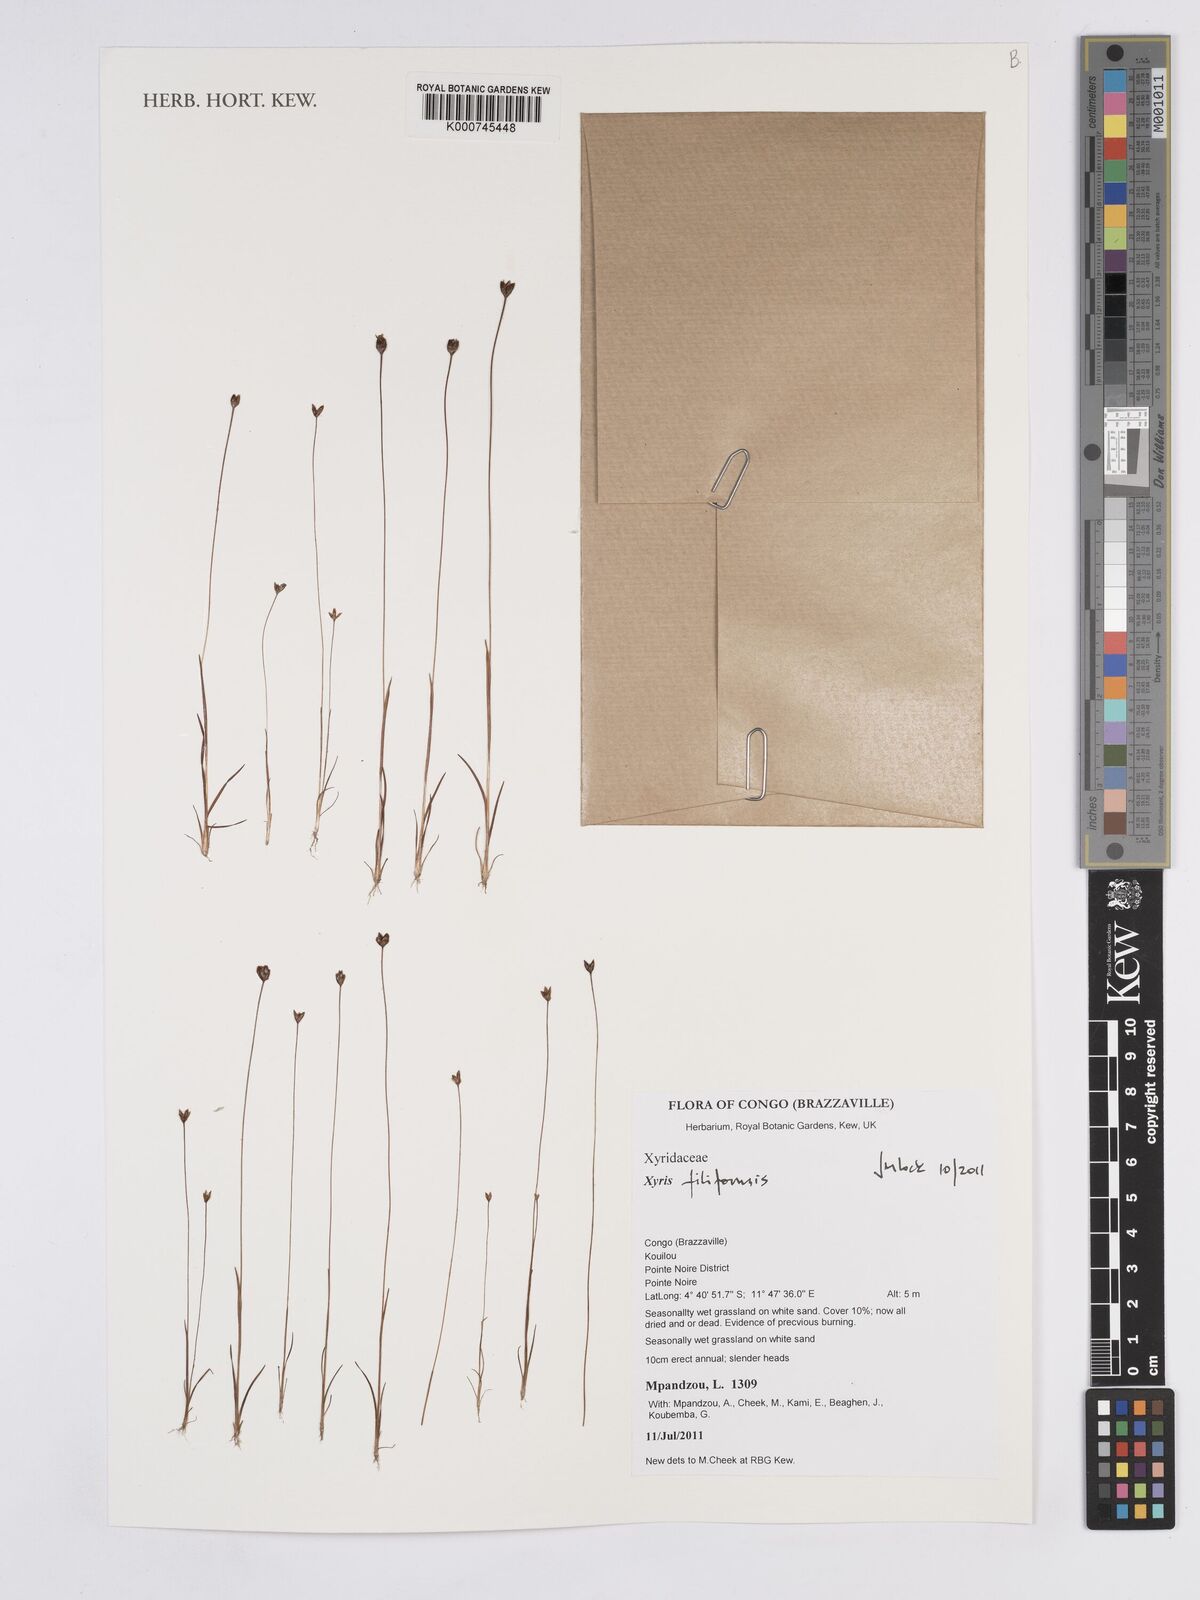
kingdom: Plantae
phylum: Tracheophyta
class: Liliopsida
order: Poales
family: Xyridaceae
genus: Xyris
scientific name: Xyris filiformis
